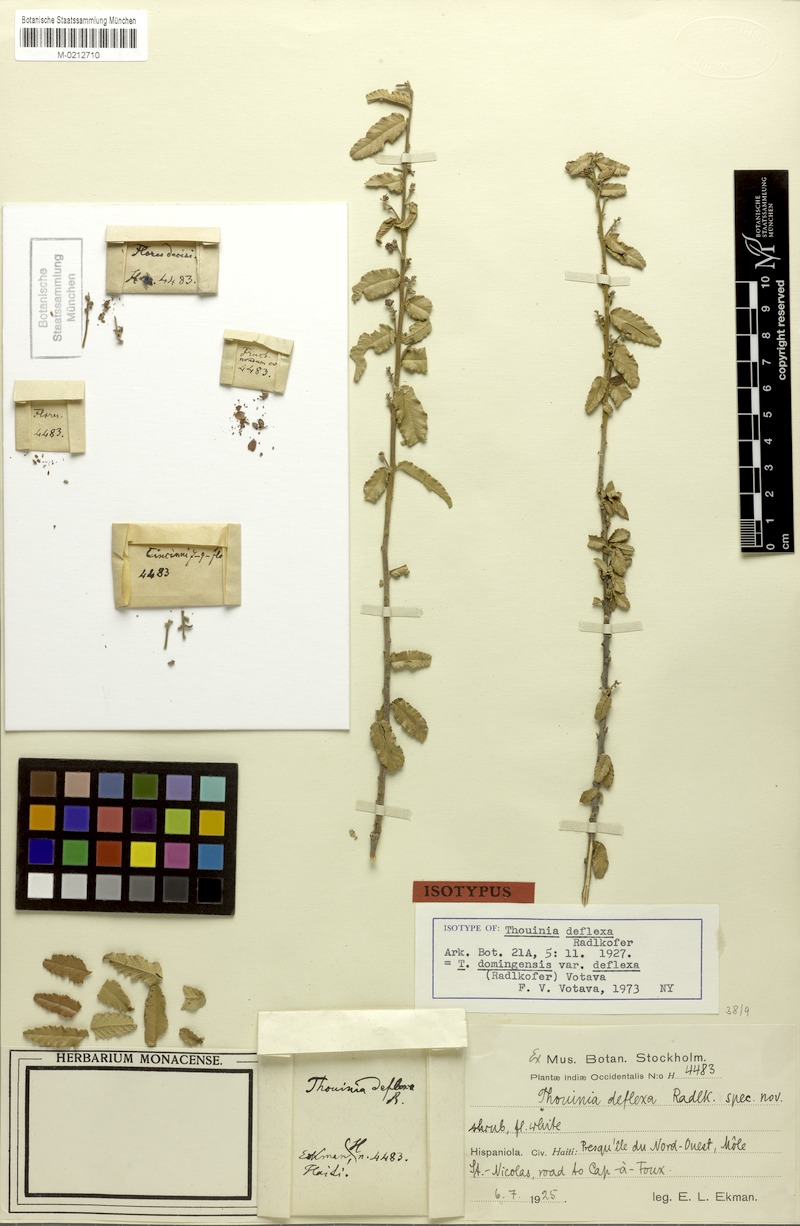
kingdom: Plantae
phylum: Tracheophyta
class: Magnoliopsida
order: Sapindales
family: Sapindaceae
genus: Thouinia
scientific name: Thouinia domingensis
